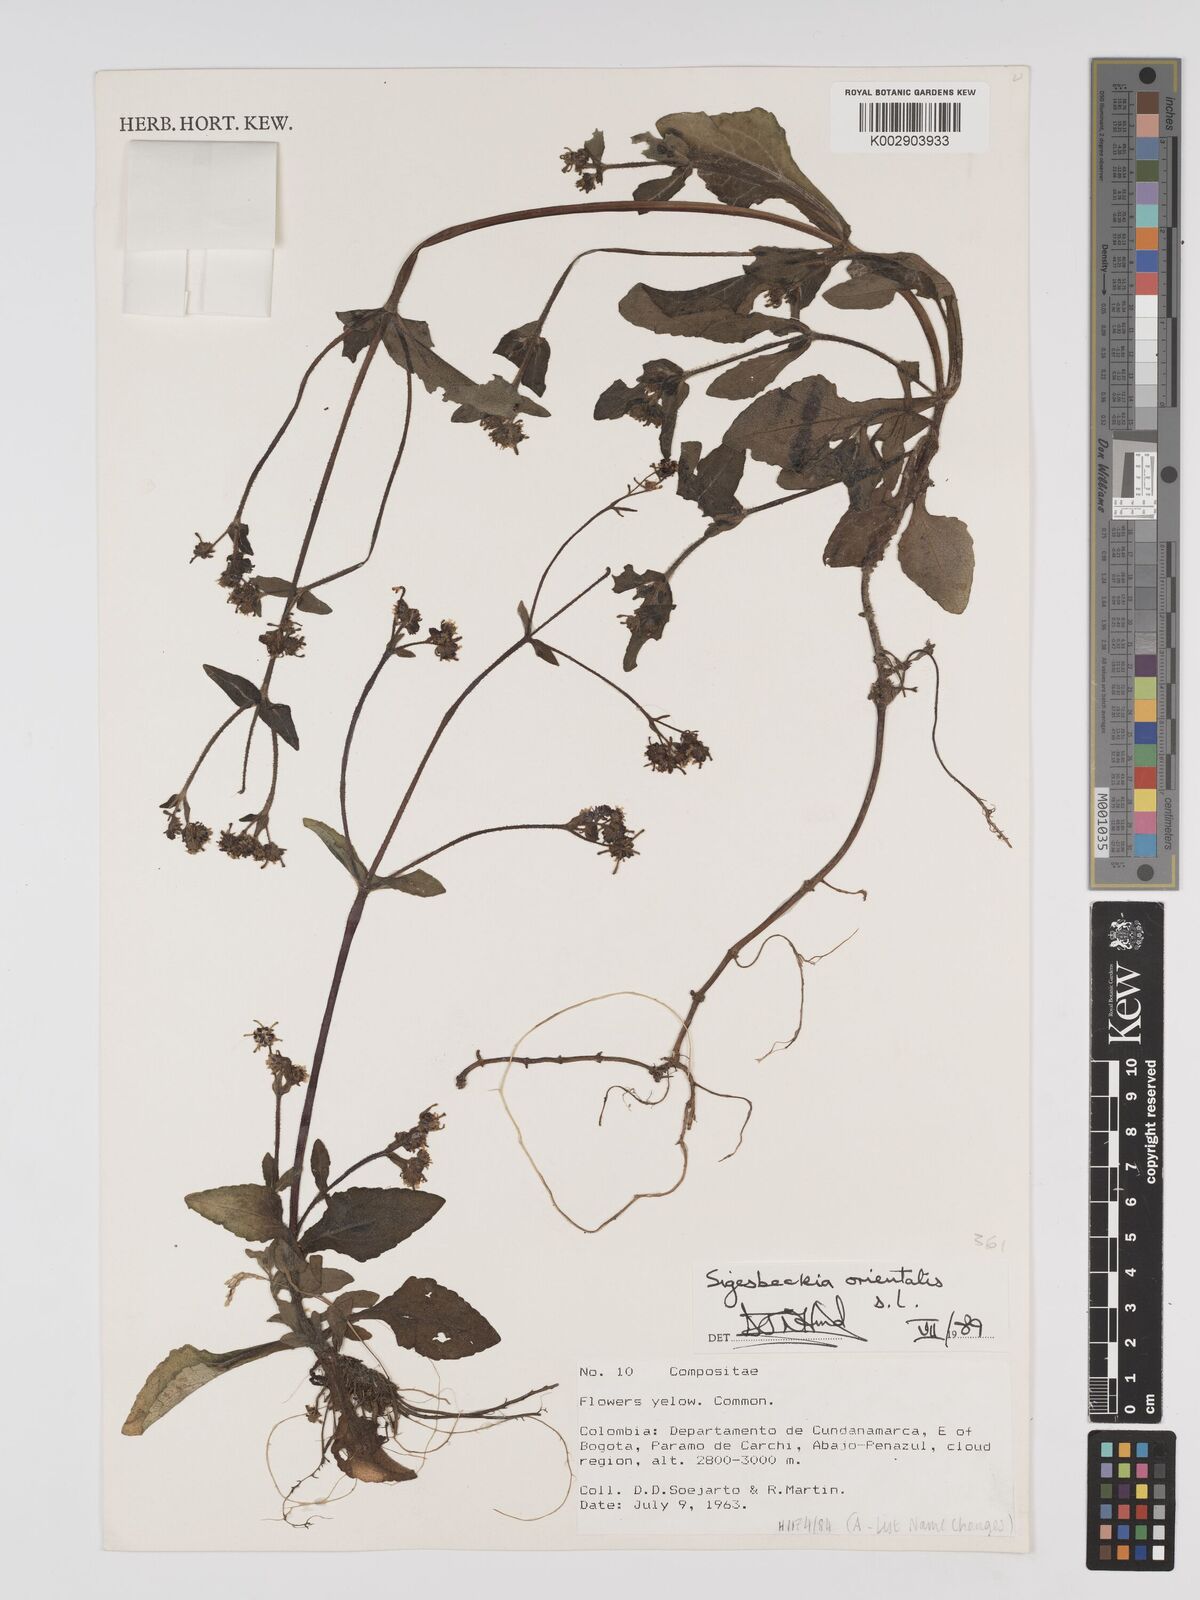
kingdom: Plantae
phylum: Tracheophyta
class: Magnoliopsida
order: Asterales
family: Asteraceae
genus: Sigesbeckia
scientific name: Sigesbeckia orientalis
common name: Eastern st paul's-wort
